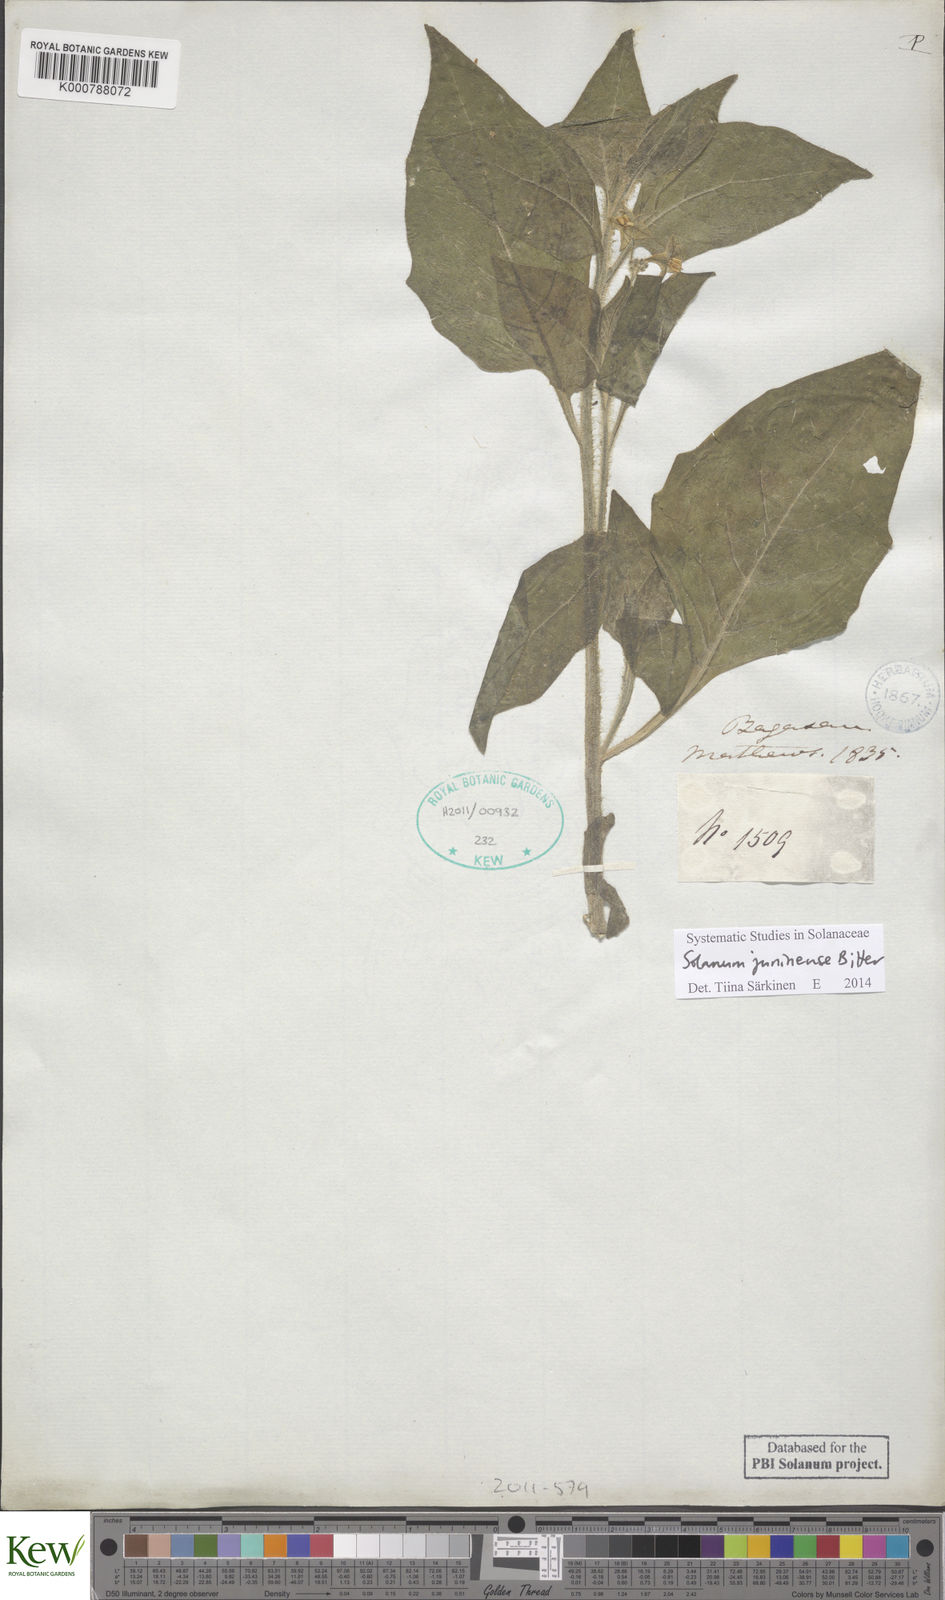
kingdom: Plantae
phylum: Tracheophyta
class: Magnoliopsida
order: Solanales
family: Solanaceae
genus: Solanum
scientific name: Solanum juninense
